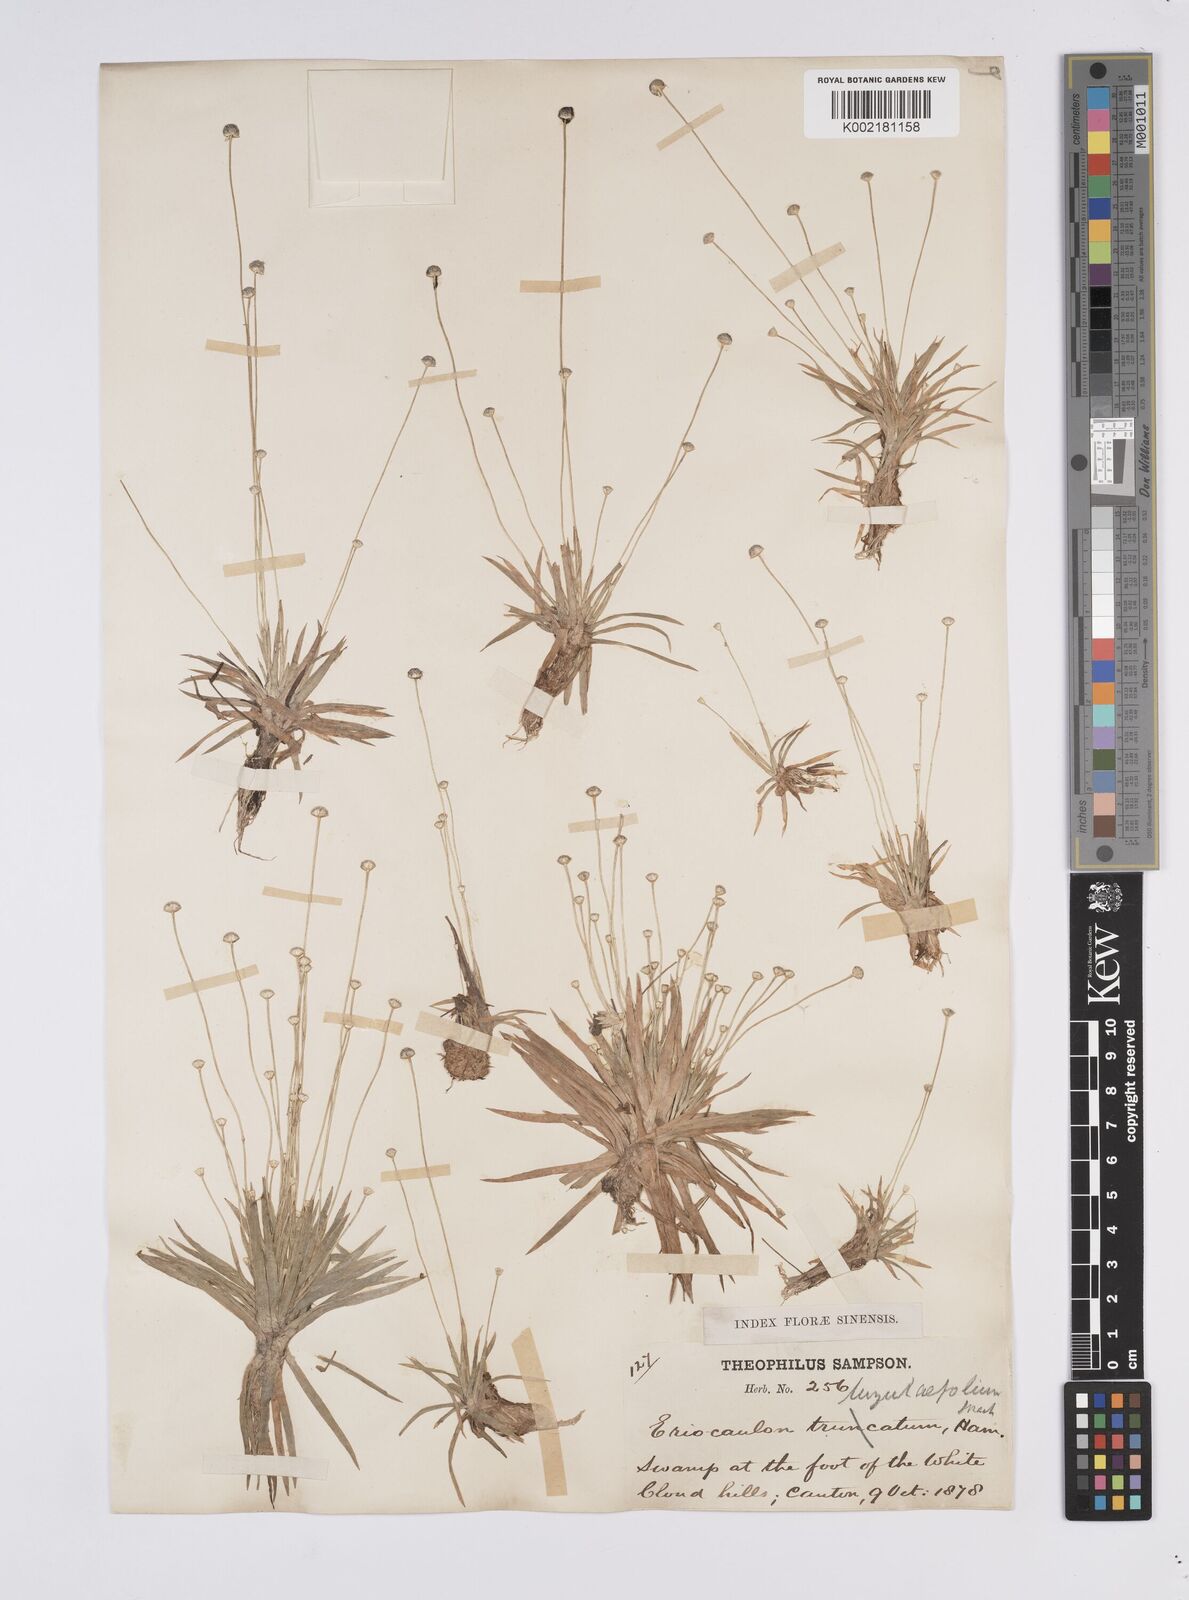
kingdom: Plantae
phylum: Tracheophyta
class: Liliopsida
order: Poales
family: Eriocaulaceae
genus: Eriocaulon
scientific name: Eriocaulon nepalense
